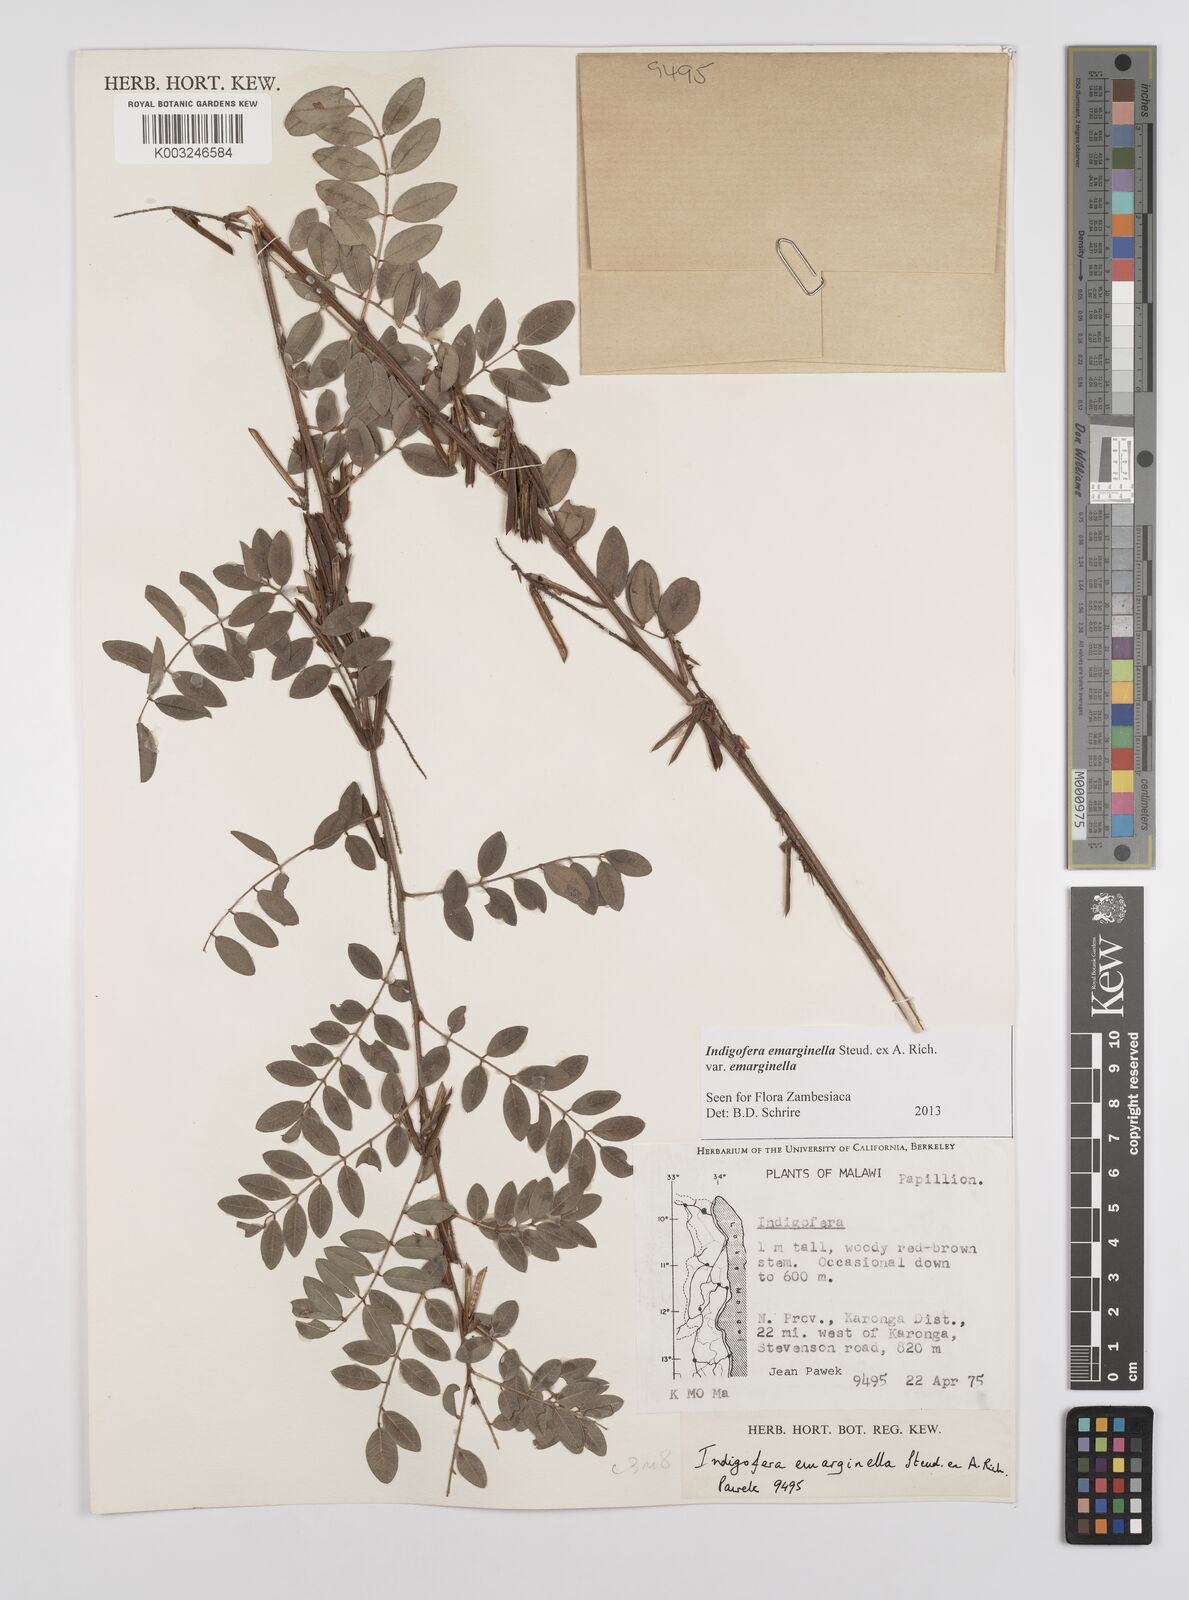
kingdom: Plantae
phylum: Tracheophyta
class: Magnoliopsida
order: Fabales
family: Fabaceae
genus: Indigofera
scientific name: Indigofera emarginella
